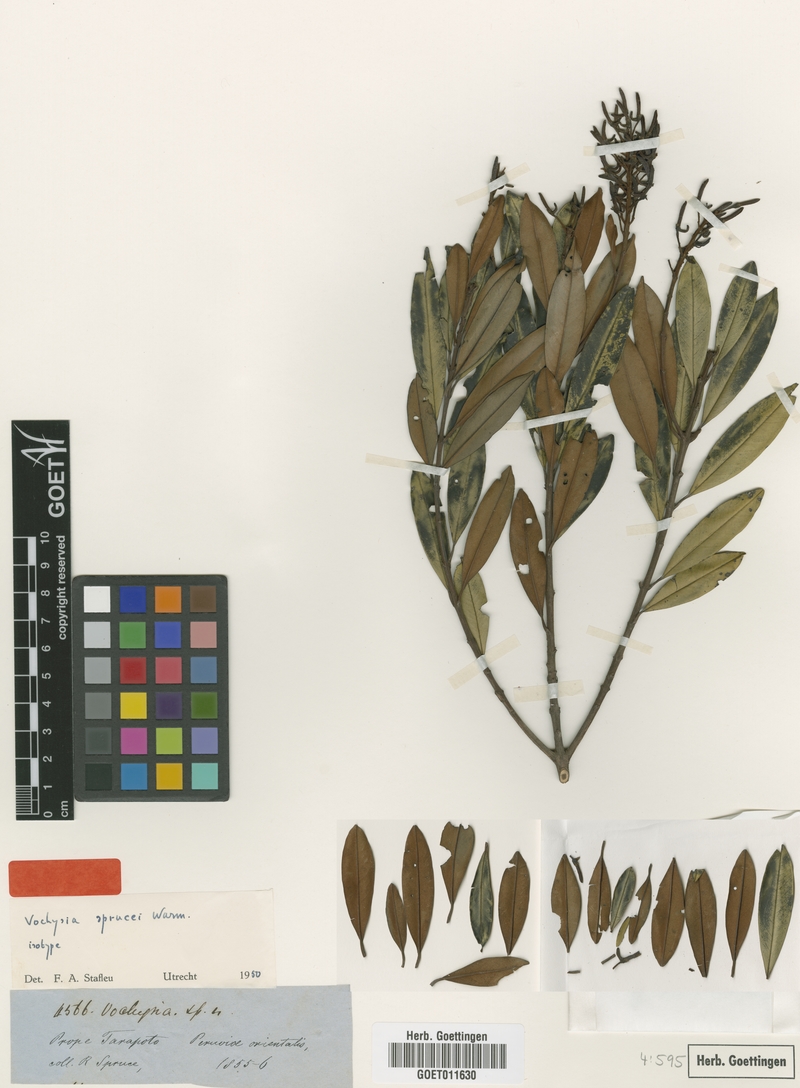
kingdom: Plantae
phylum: Tracheophyta
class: Magnoliopsida
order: Myrtales
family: Vochysiaceae
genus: Vochysia
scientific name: Vochysia sprucei
